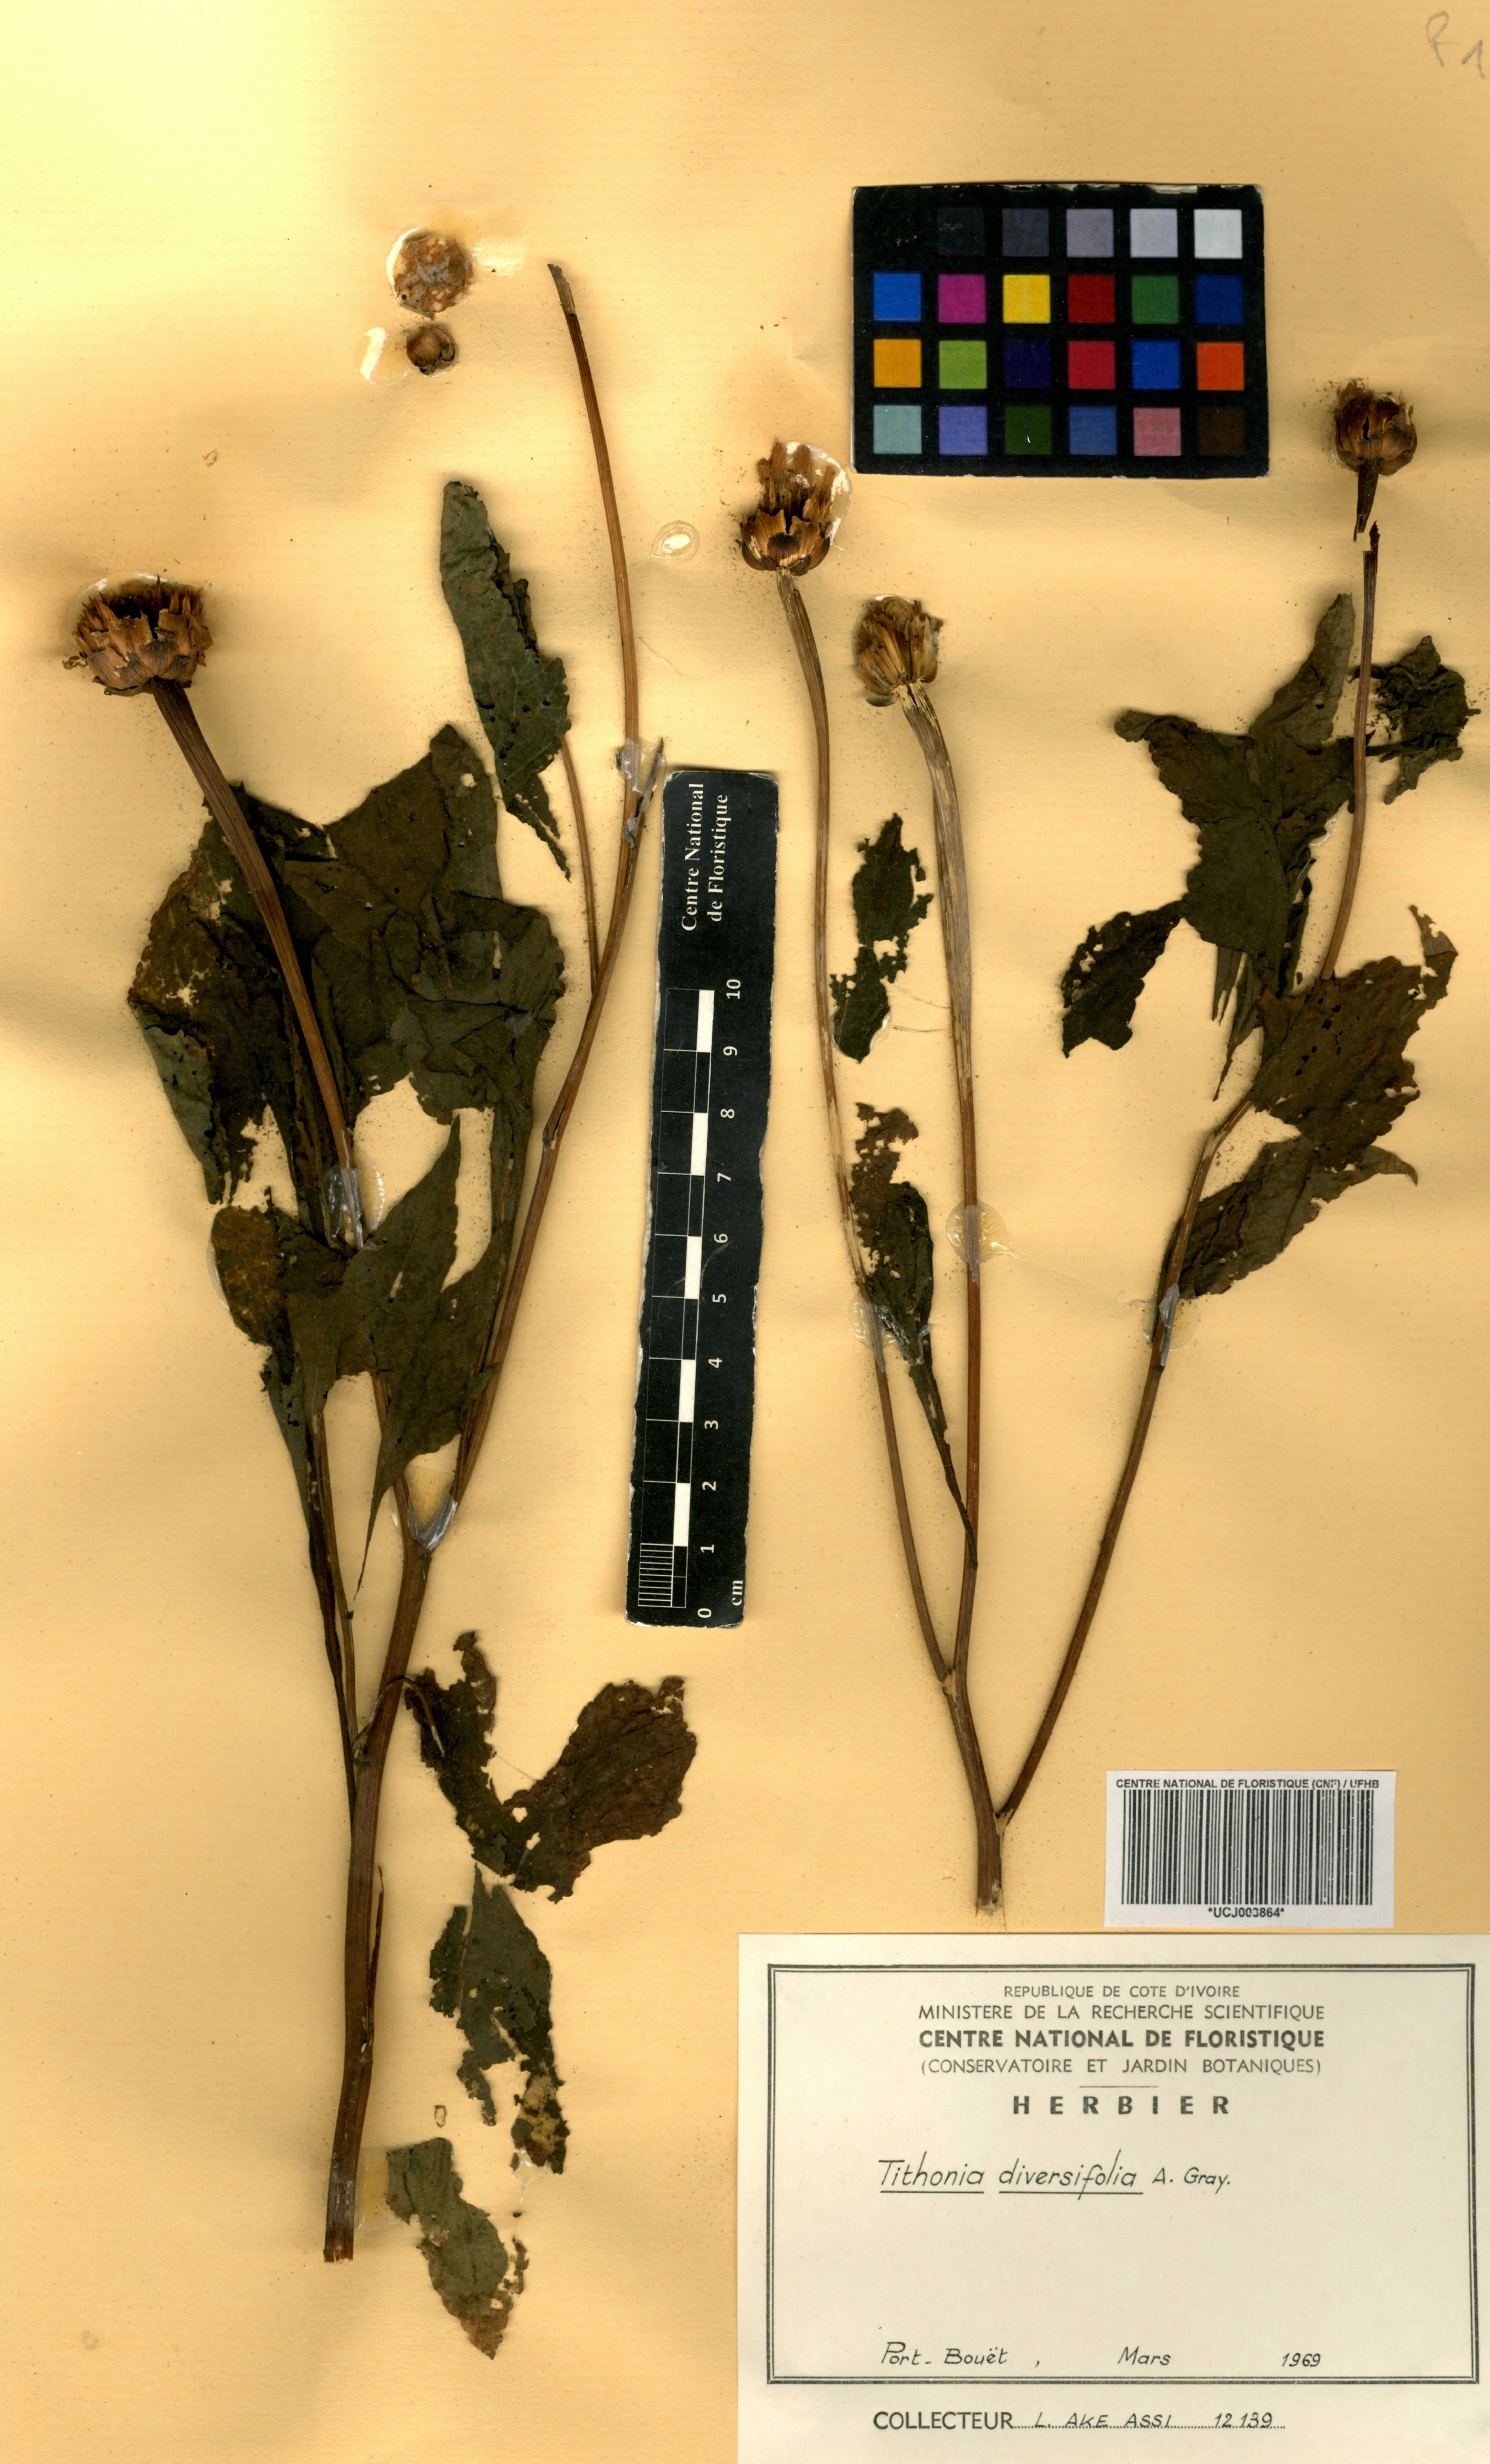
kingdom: Plantae
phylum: Tracheophyta
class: Magnoliopsida
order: Asterales
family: Asteraceae
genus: Tithonia
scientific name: Tithonia diversifolia
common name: Tree marigold
